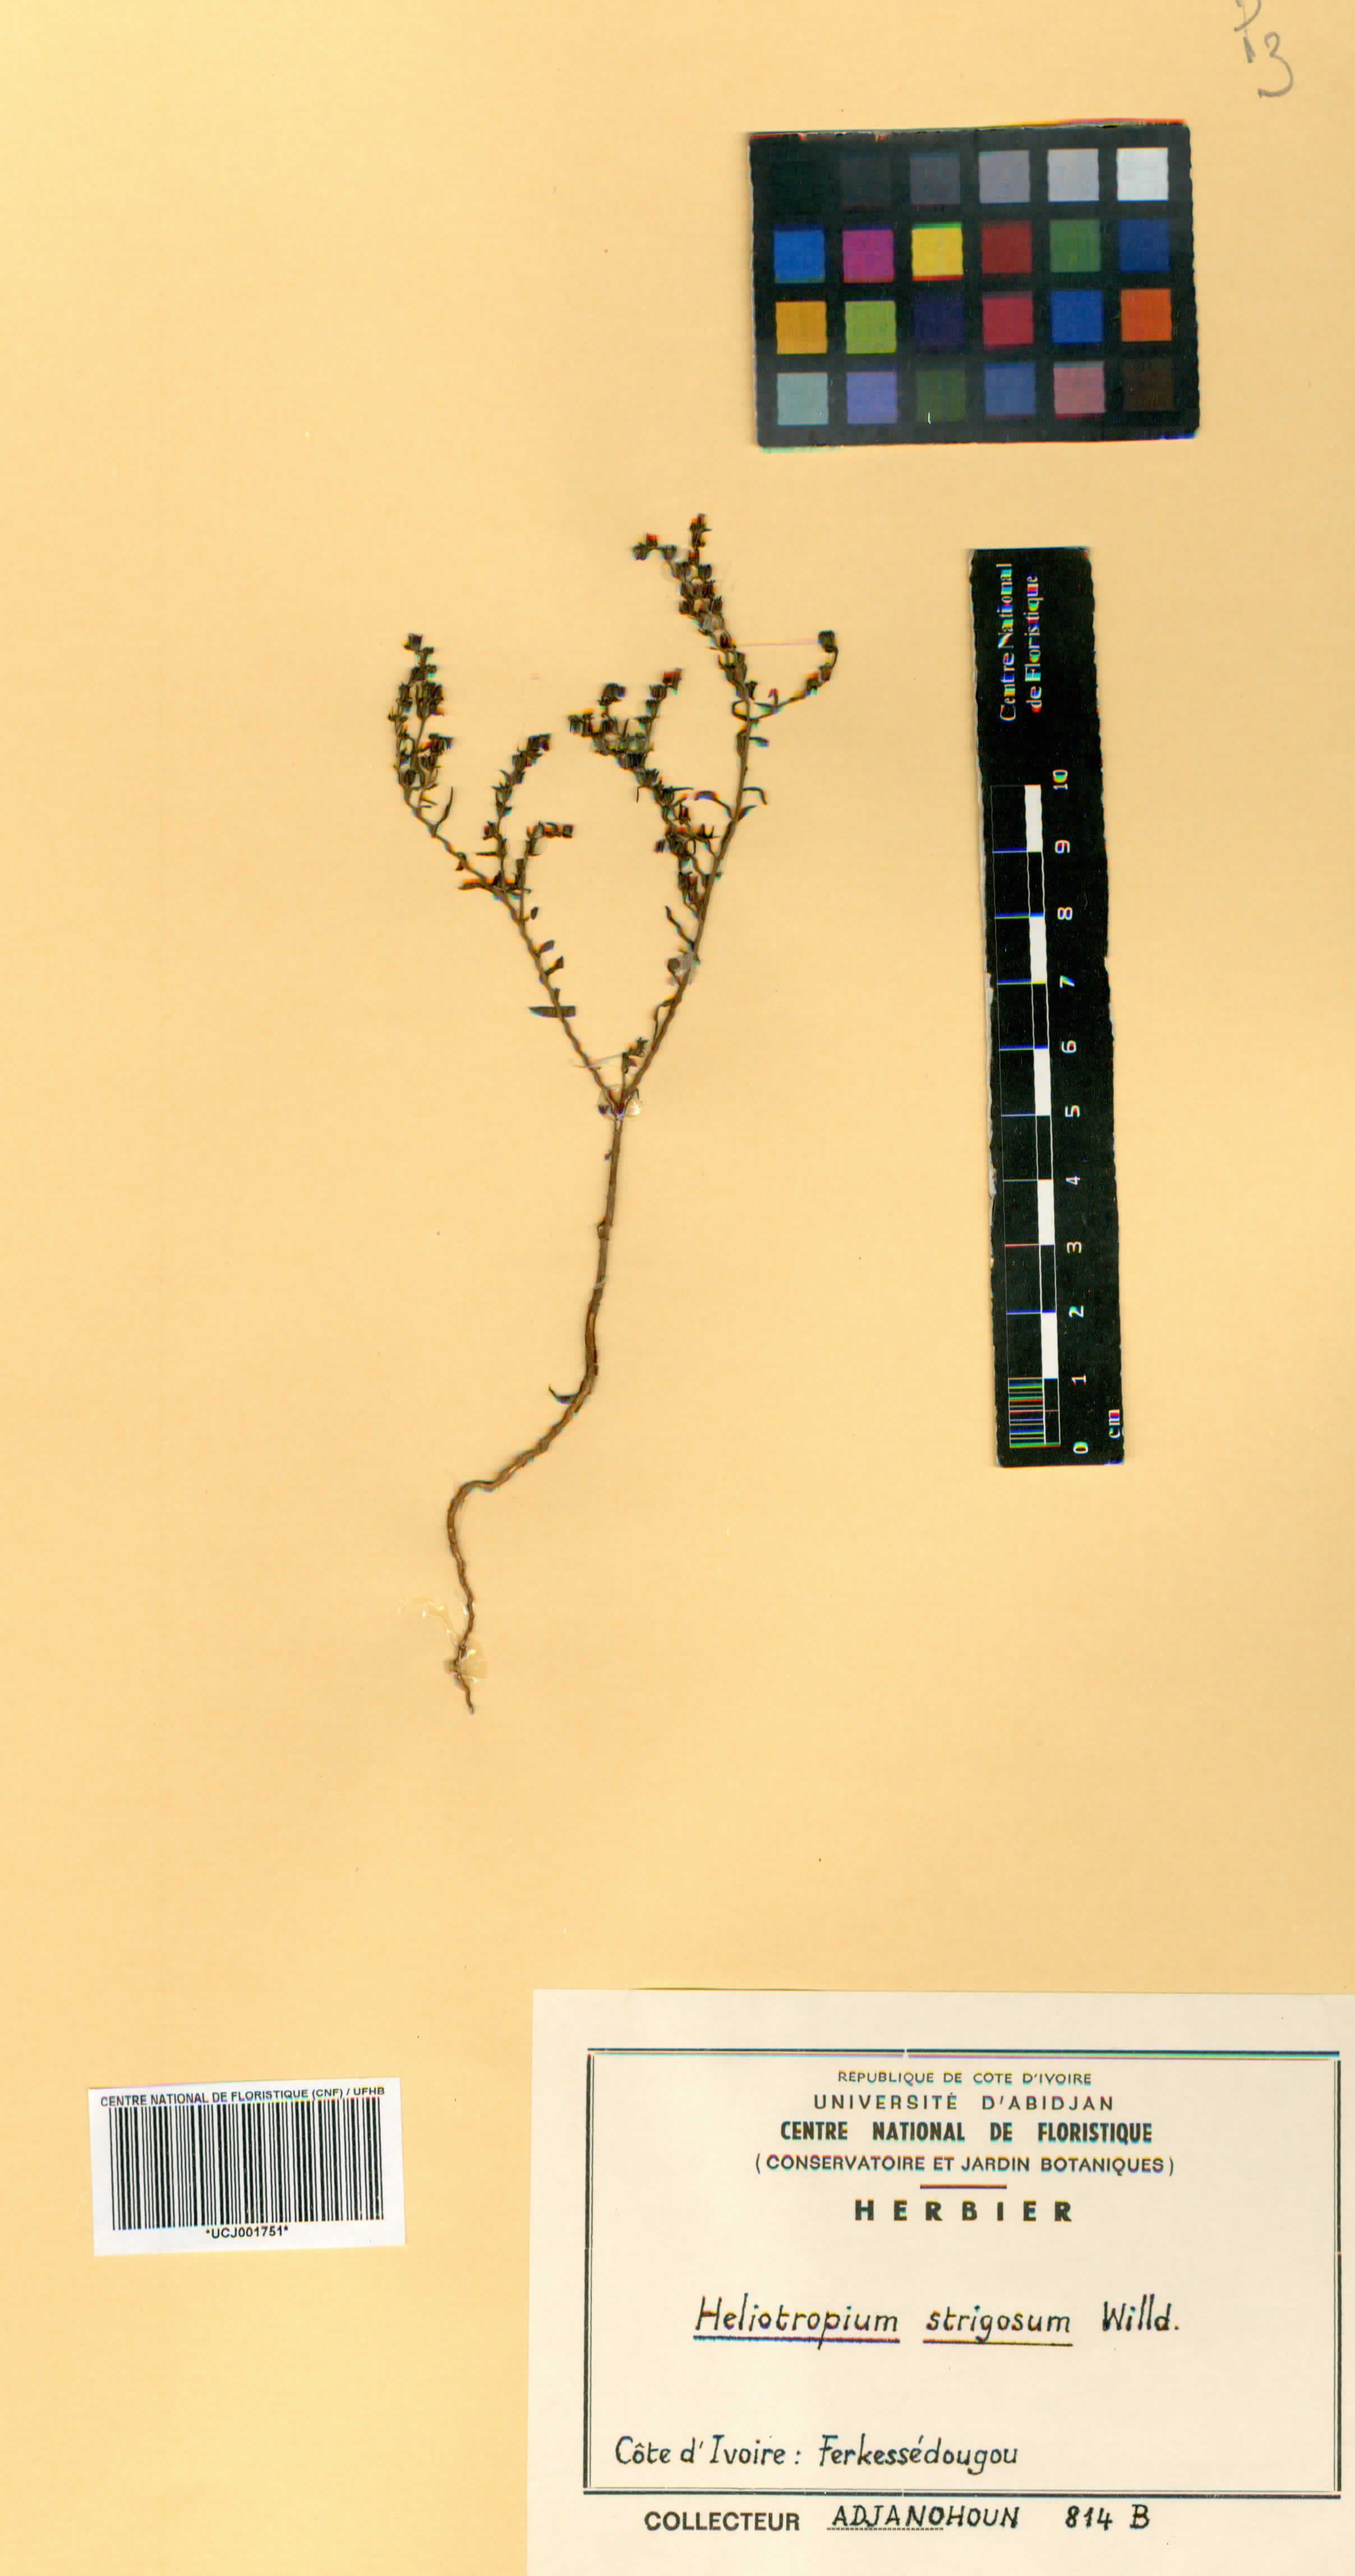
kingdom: Plantae
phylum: Tracheophyta
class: Magnoliopsida
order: Boraginales
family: Heliotropiaceae
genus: Euploca
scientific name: Euploca strigosa
